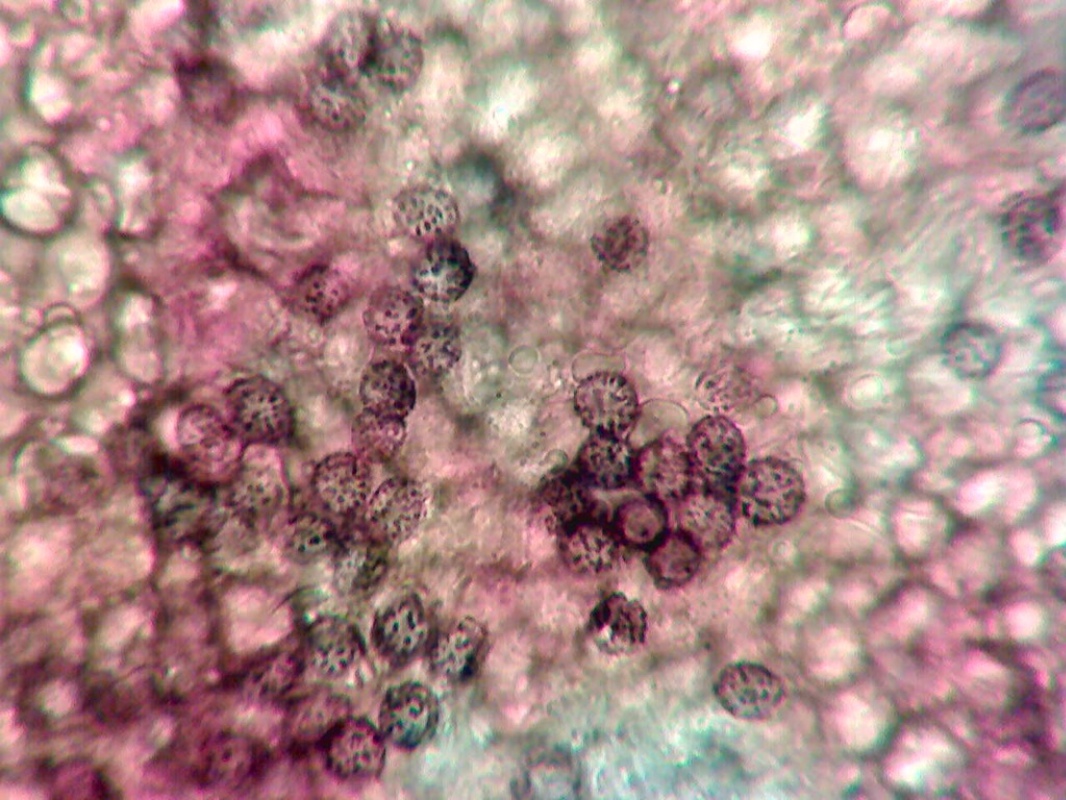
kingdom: Fungi
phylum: Basidiomycota
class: Agaricomycetes
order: Russulales
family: Russulaceae
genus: Russula
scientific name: Russula emeticicolor
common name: giftrød skørhat
